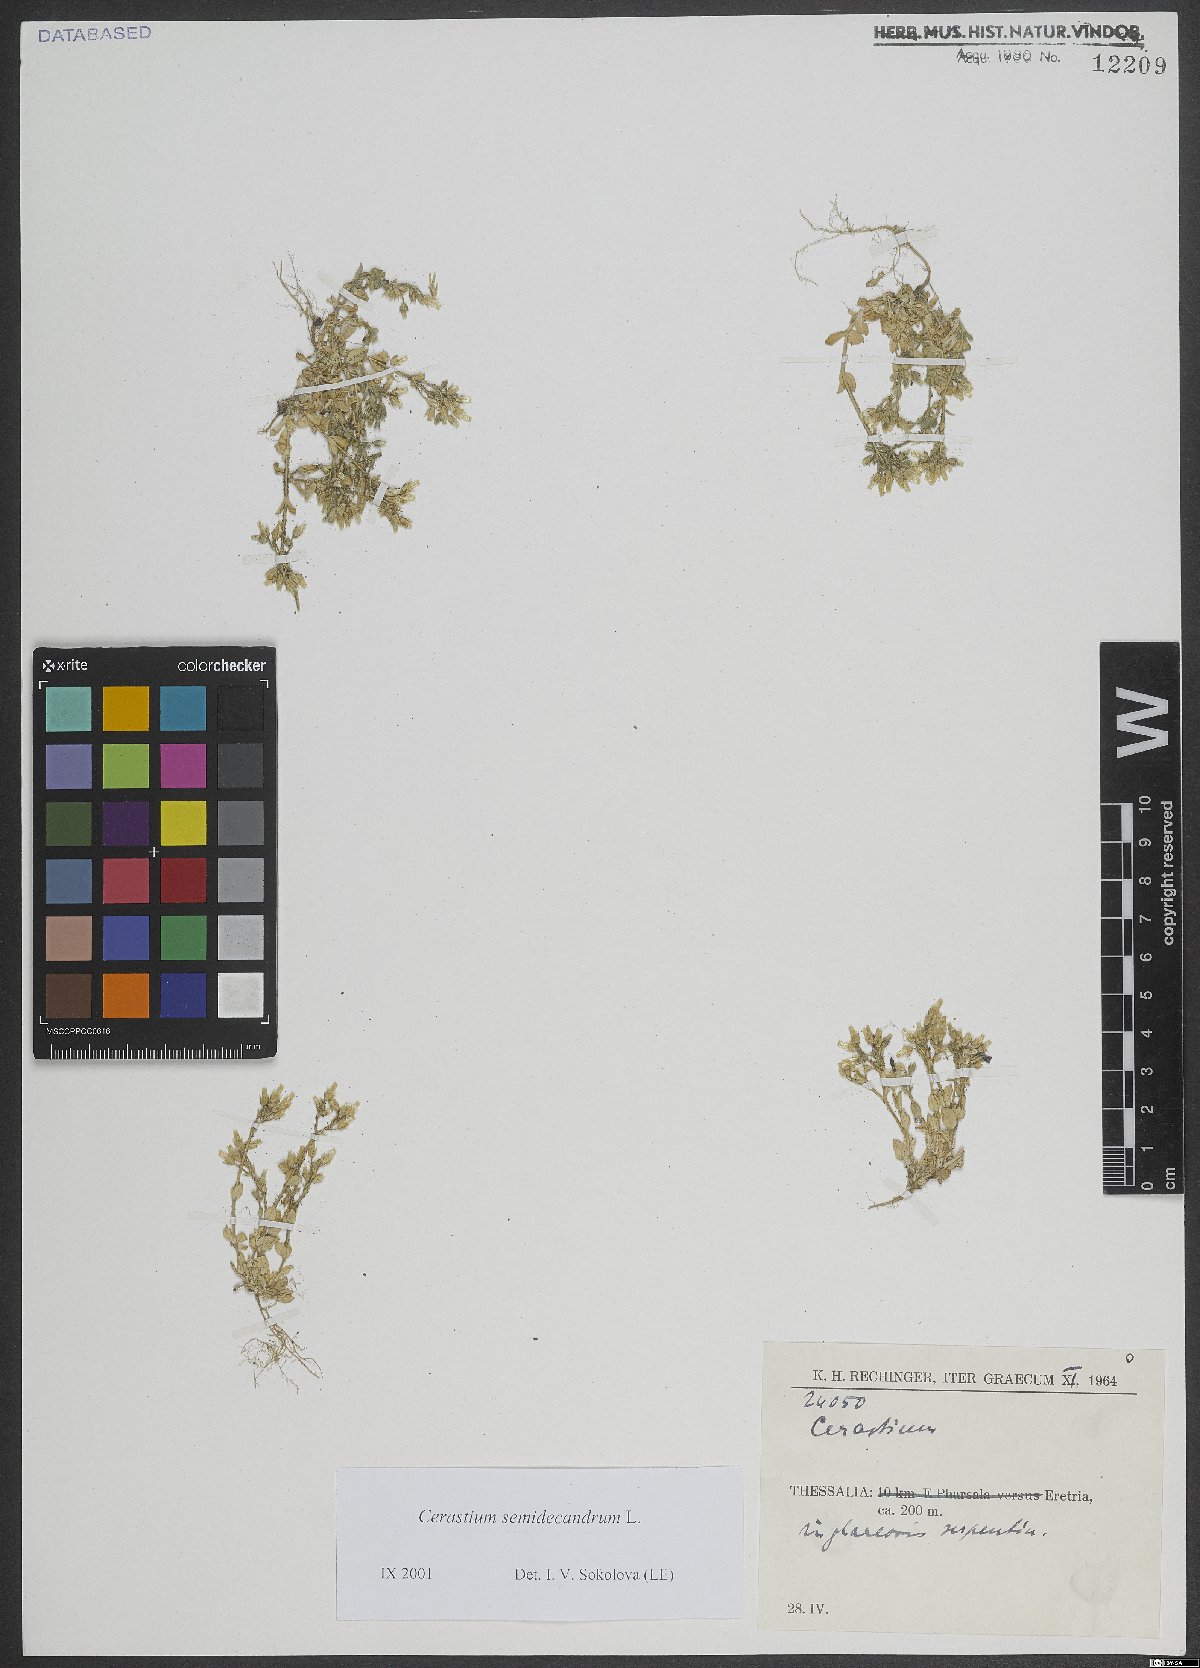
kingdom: Plantae
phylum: Tracheophyta
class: Magnoliopsida
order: Caryophyllales
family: Caryophyllaceae
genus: Cerastium
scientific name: Cerastium semidecandrum
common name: Little mouse-ear
